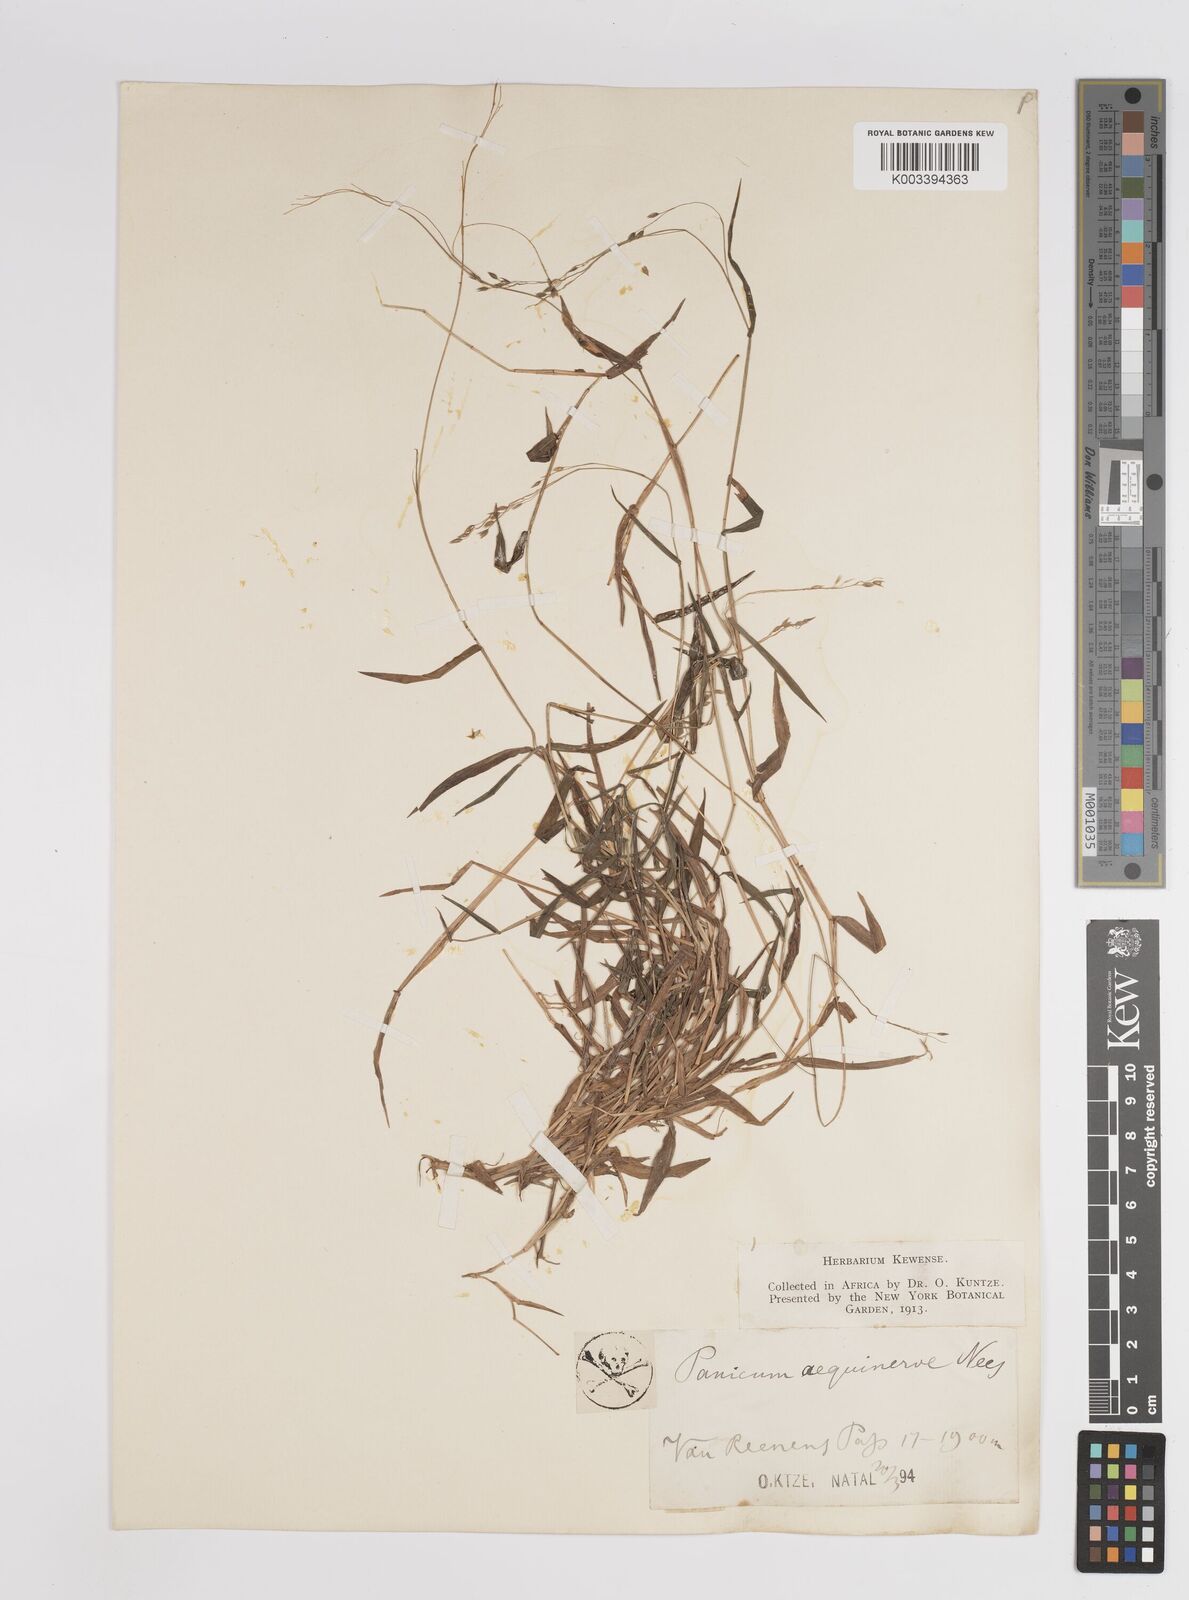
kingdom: Plantae
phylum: Tracheophyta
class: Liliopsida
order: Poales
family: Poaceae
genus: Panicum
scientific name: Panicum aequinerve
